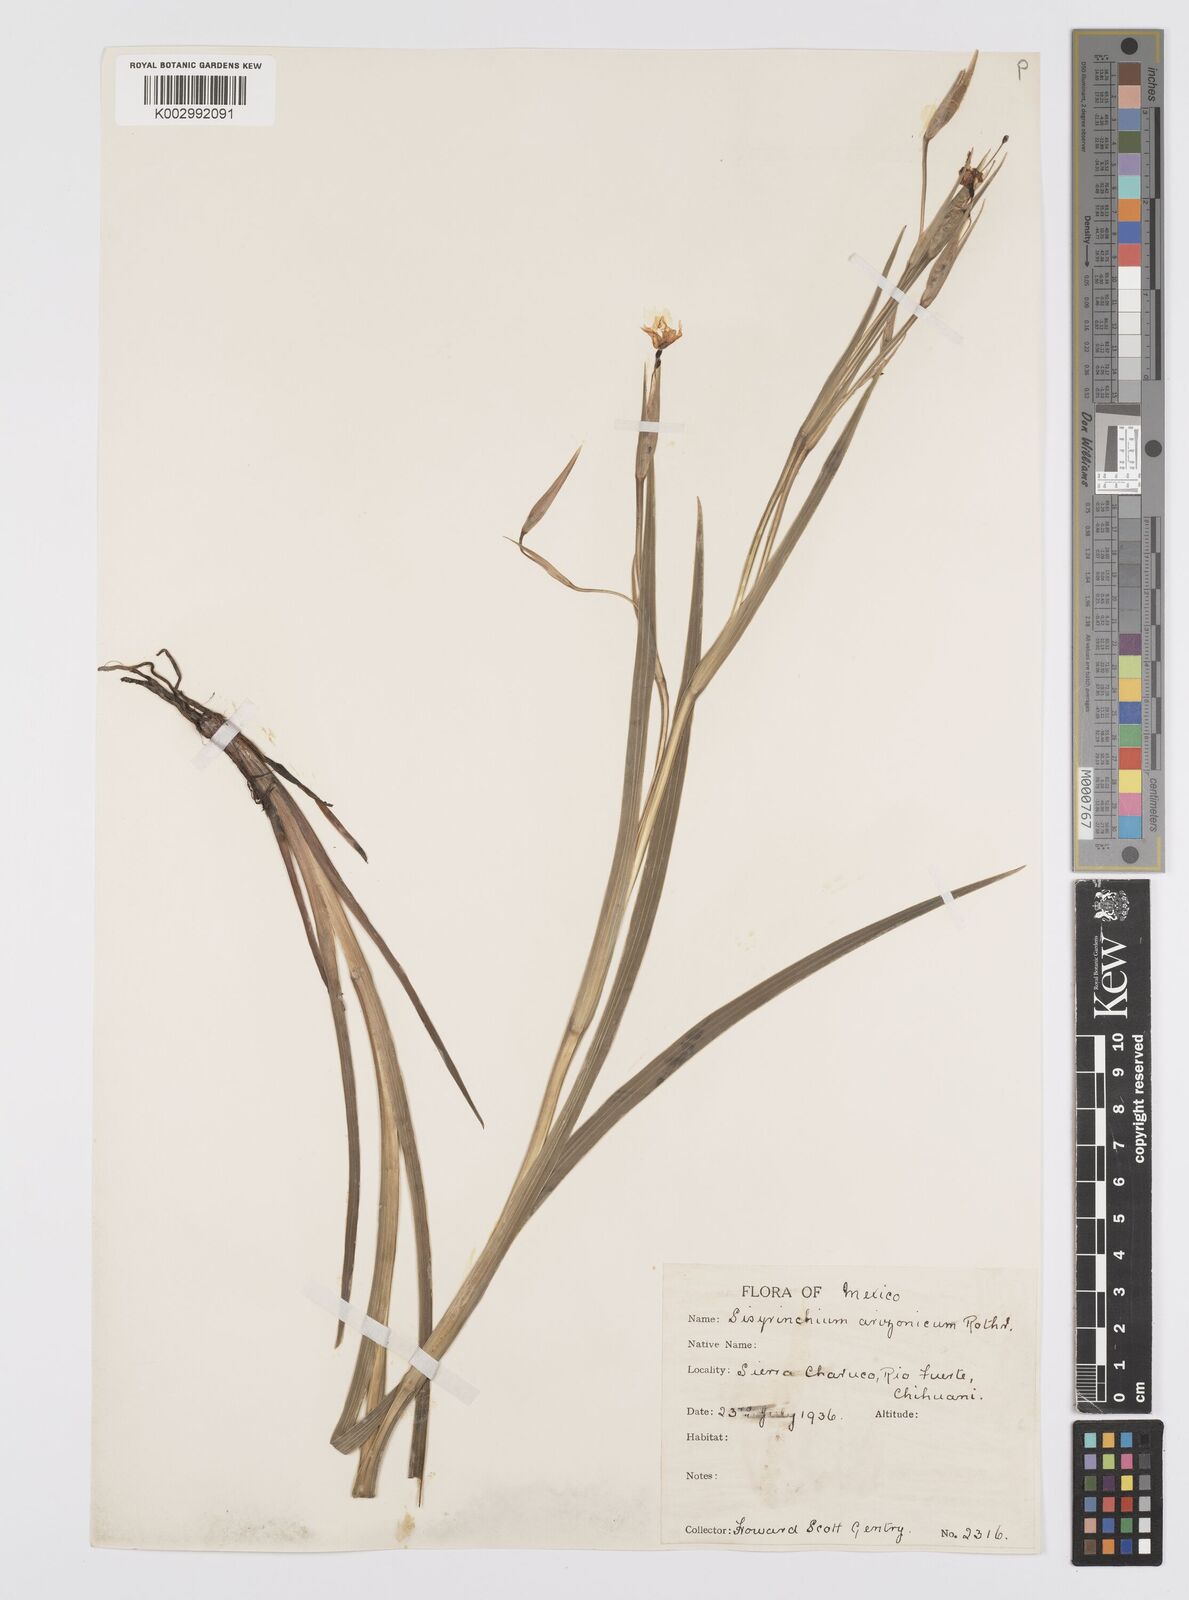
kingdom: Plantae
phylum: Tracheophyta
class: Liliopsida
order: Asparagales
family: Iridaceae
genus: Sisyrinchium
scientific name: Sisyrinchium arizonicum
